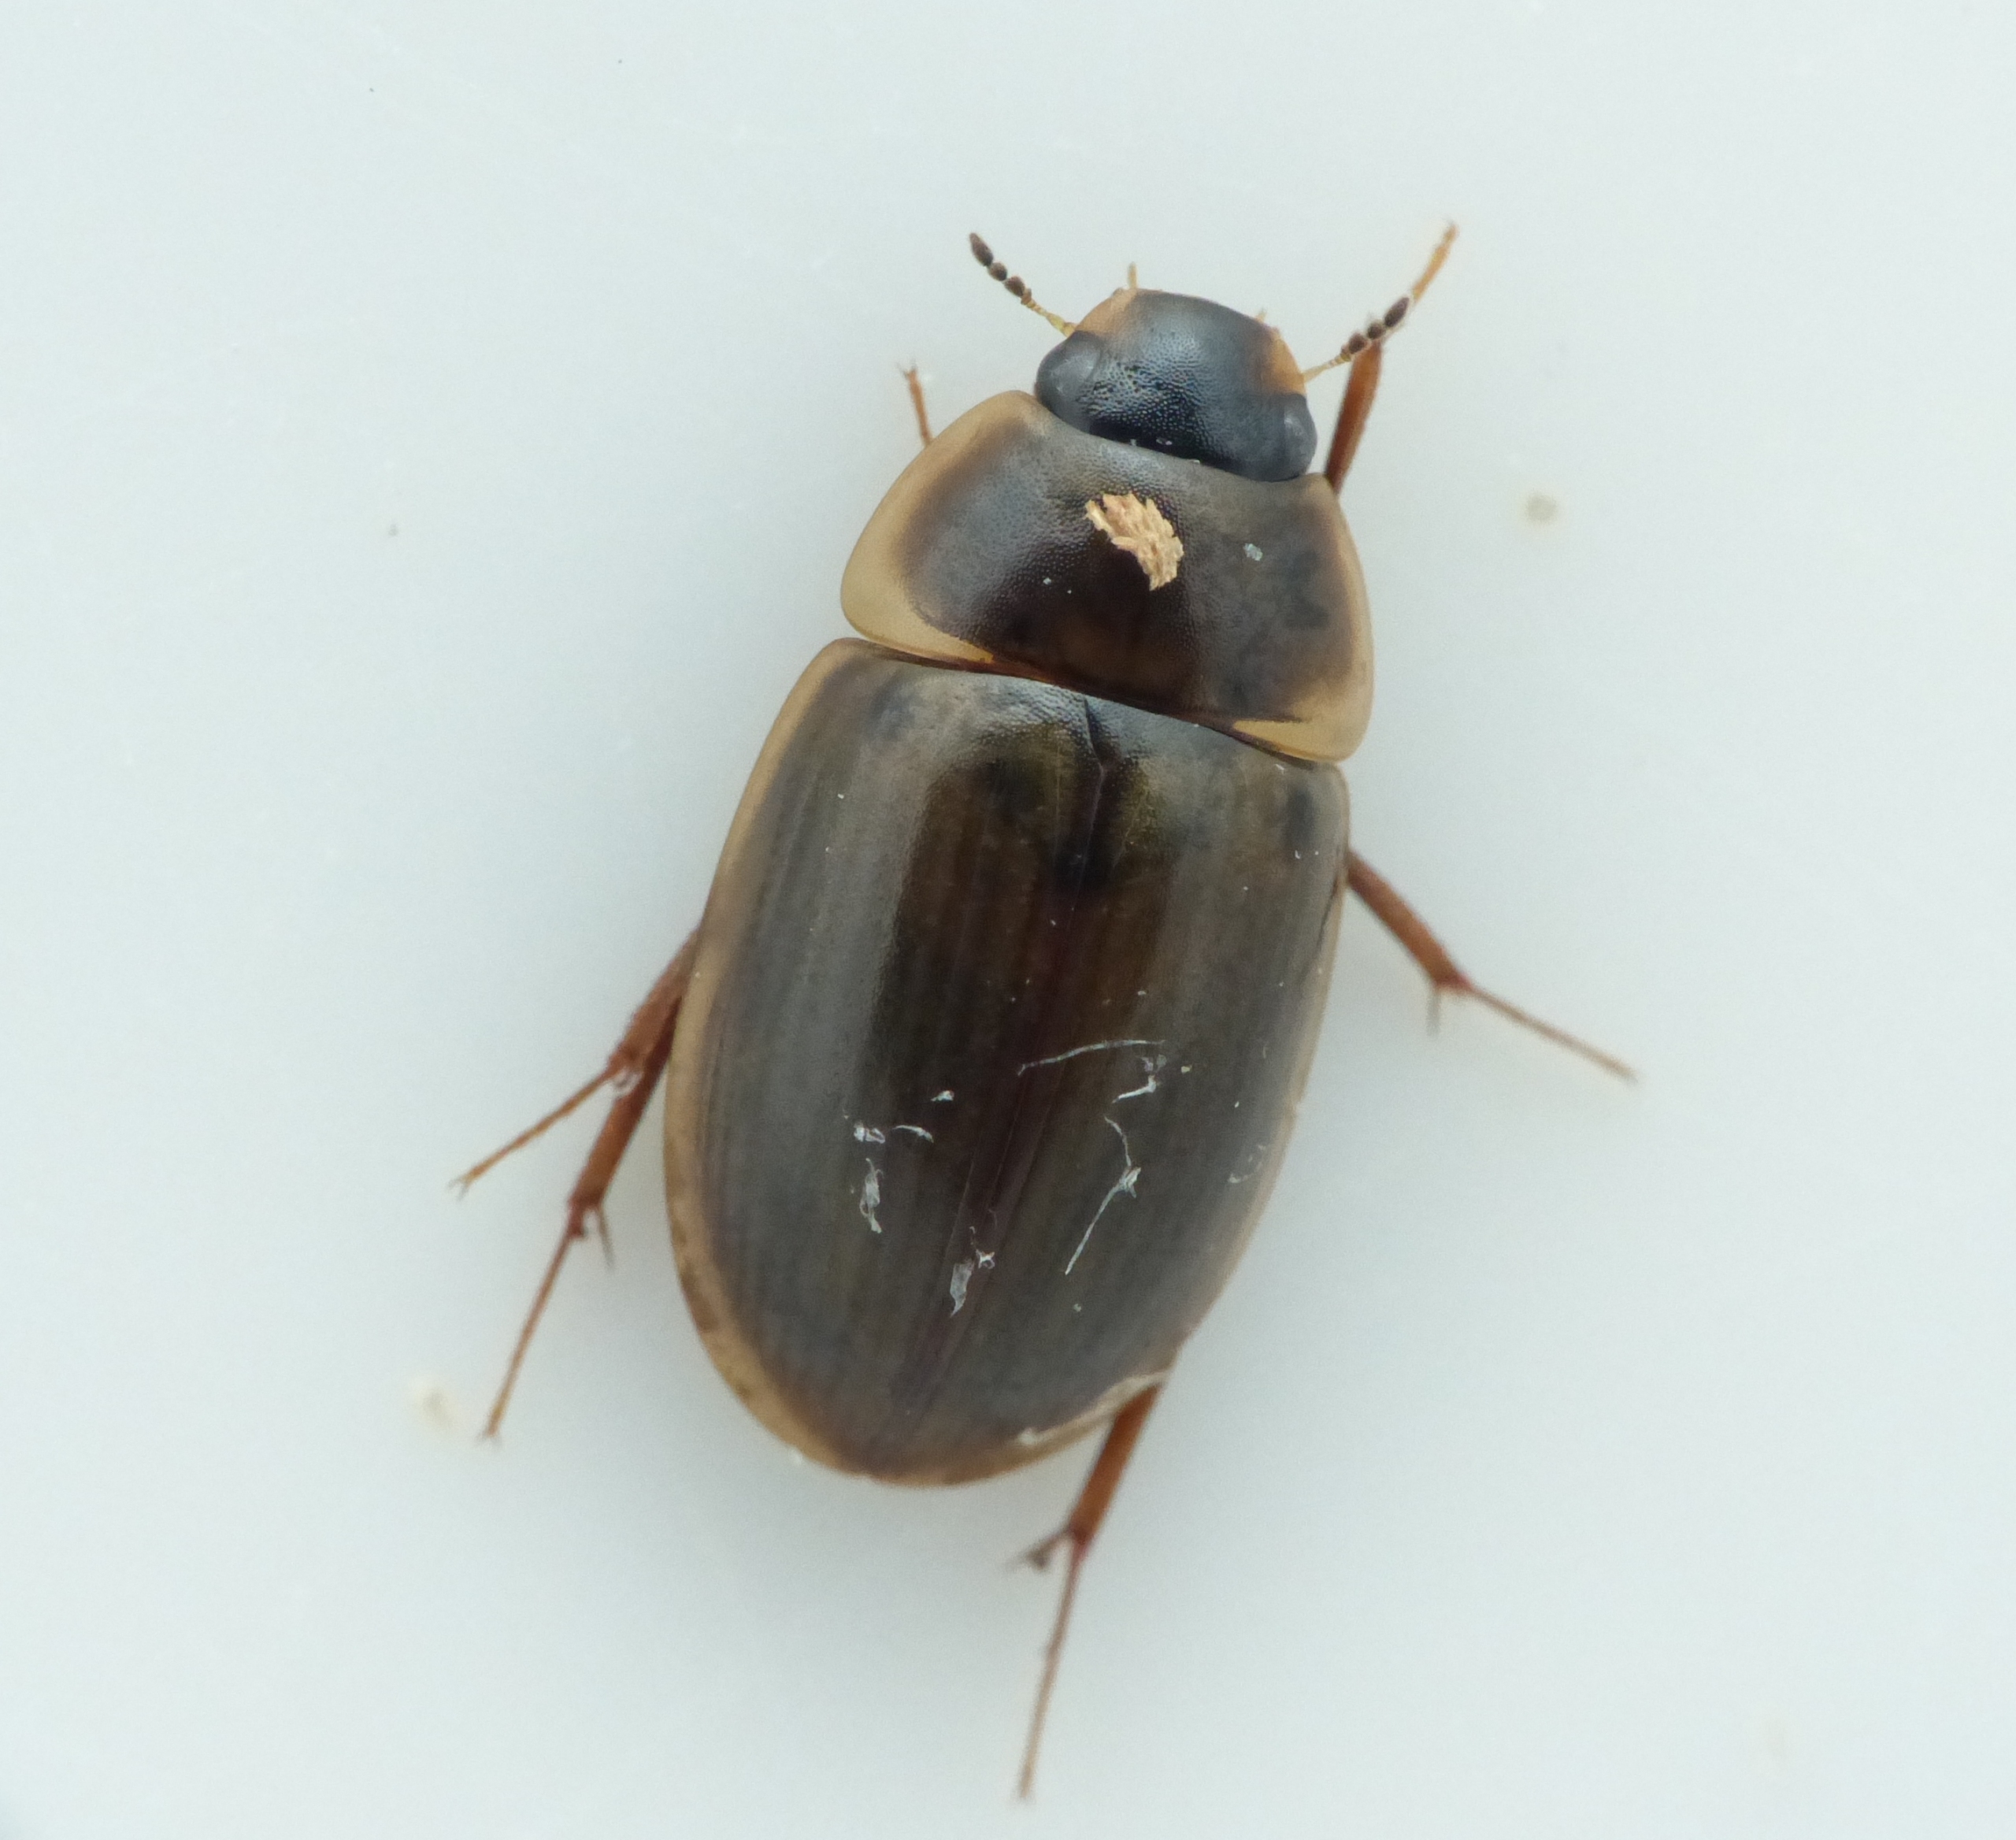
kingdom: Animalia
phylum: Arthropoda
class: Insecta
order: Coleoptera
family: Hydrophilidae
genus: Enochrus
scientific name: Enochrus halophilus
